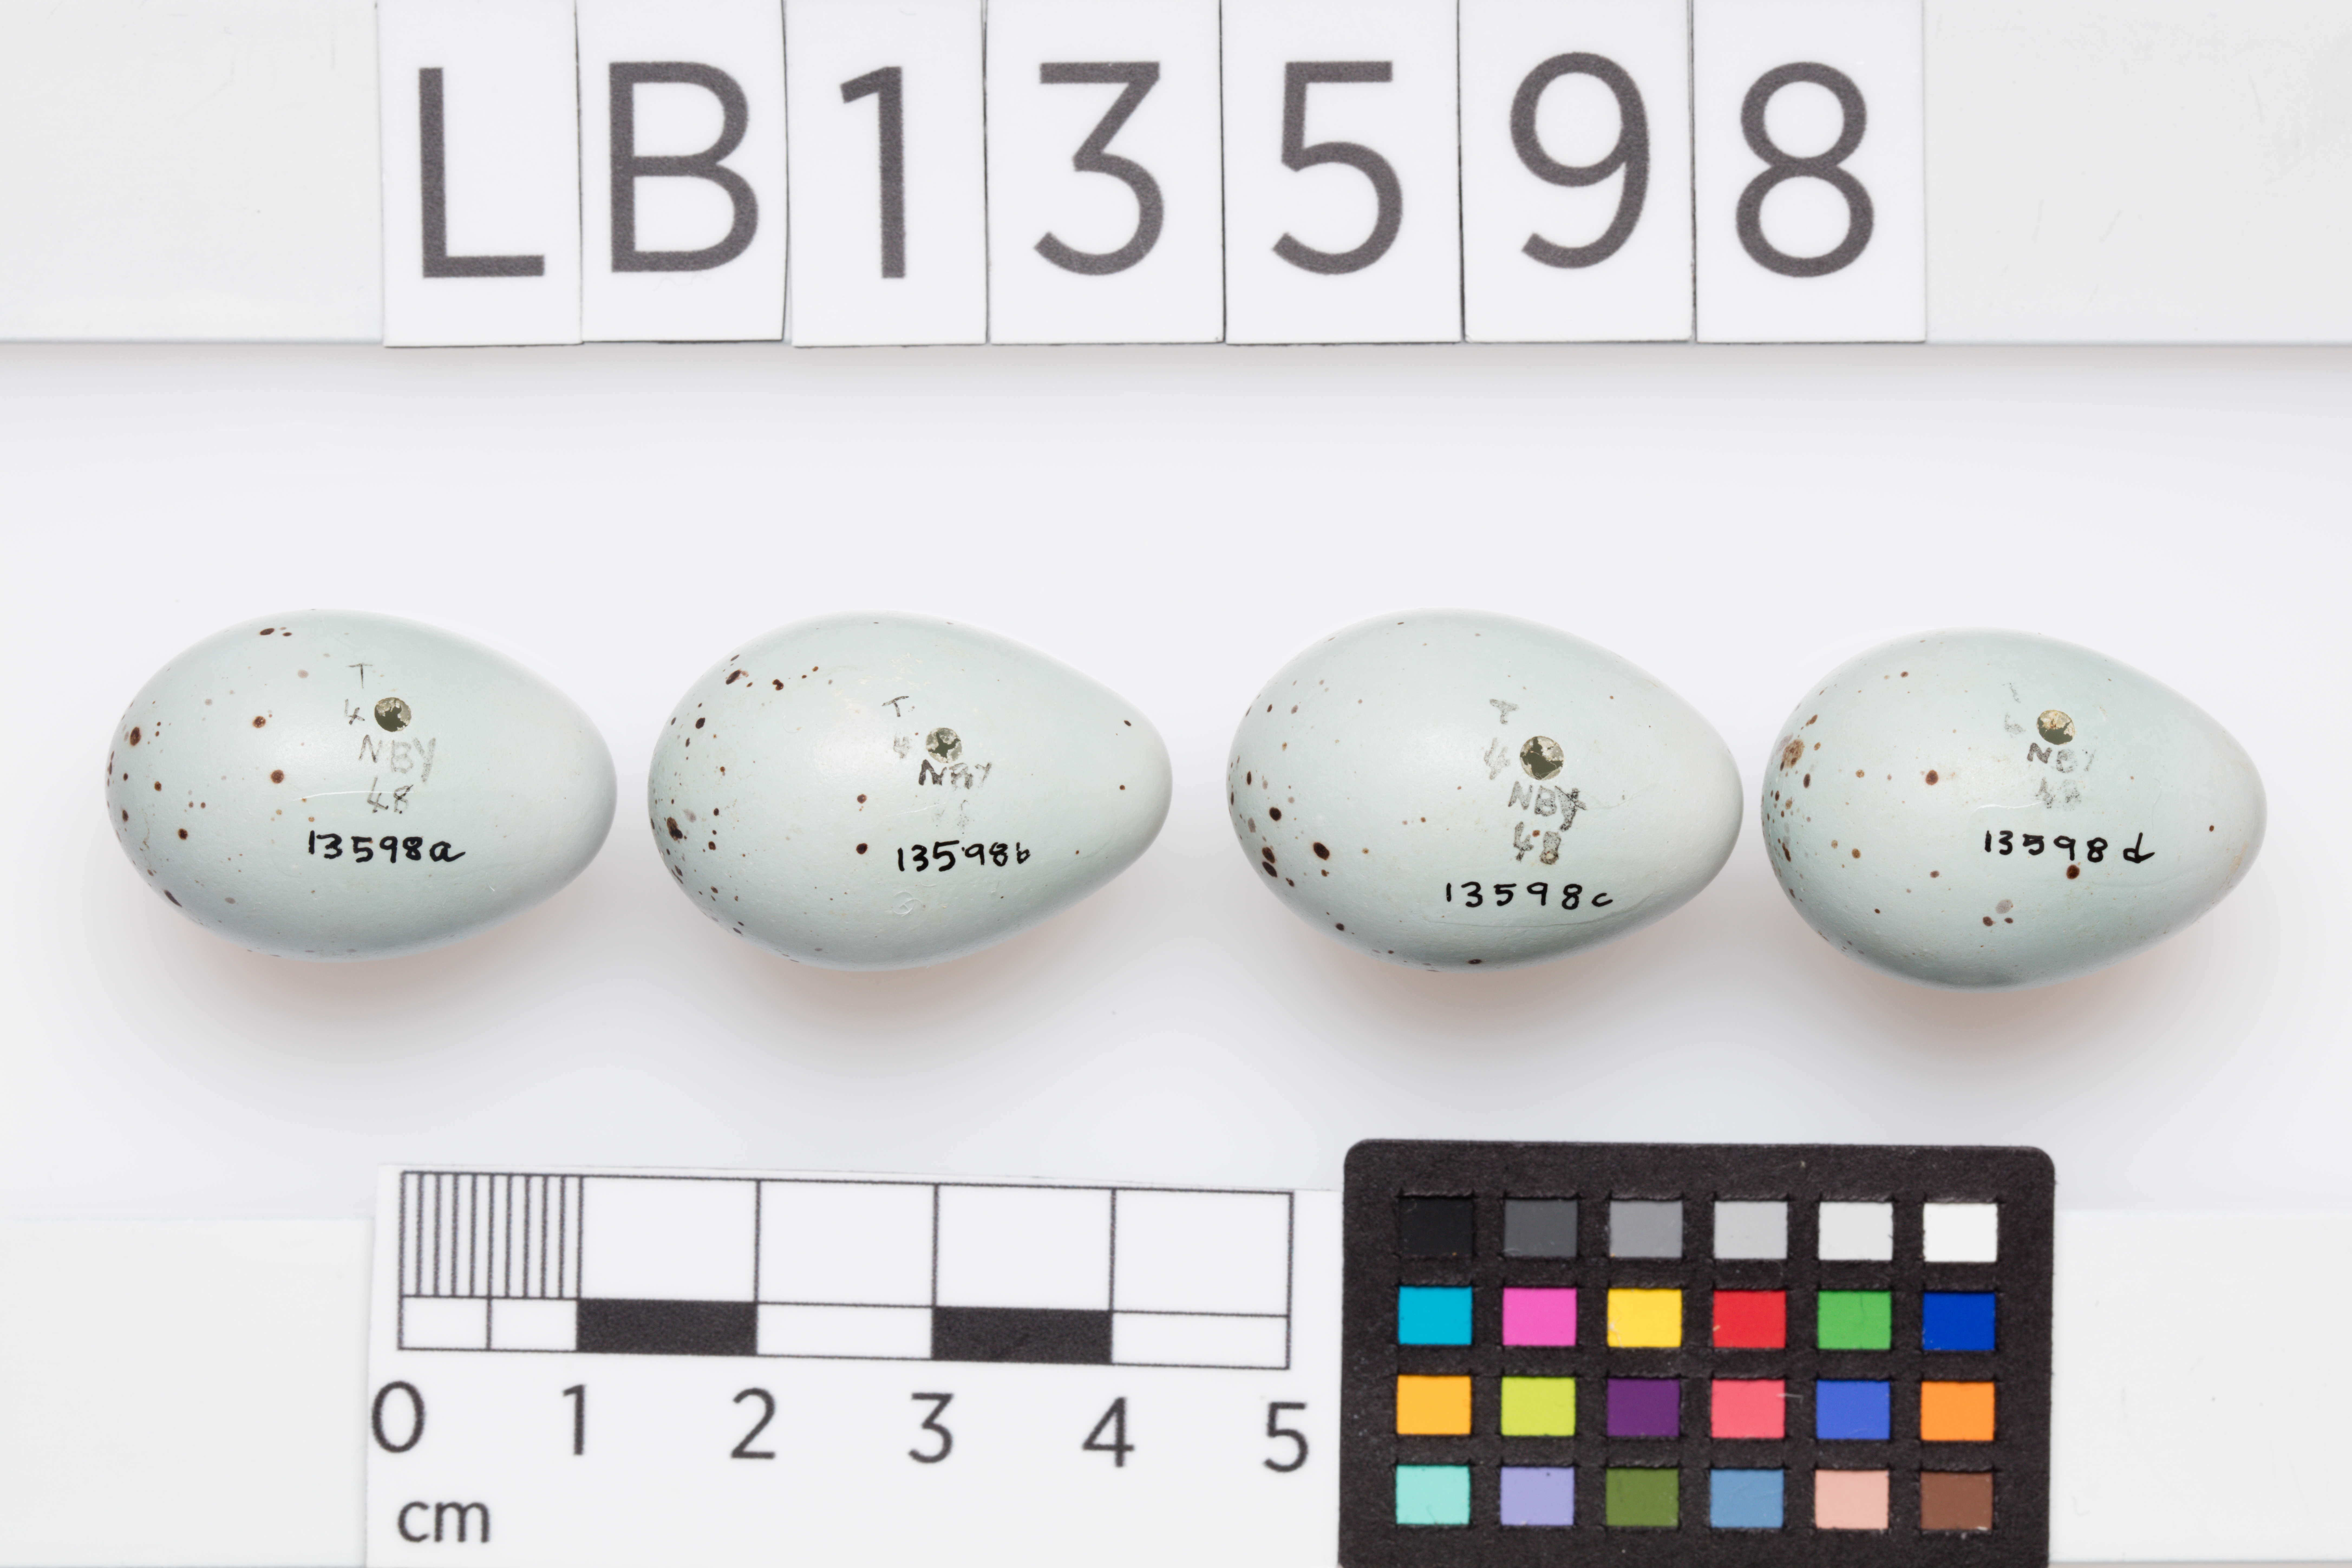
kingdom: Animalia
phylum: Chordata
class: Aves
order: Passeriformes
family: Turdidae
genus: Turdus
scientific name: Turdus philomelos
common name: Song thrush
